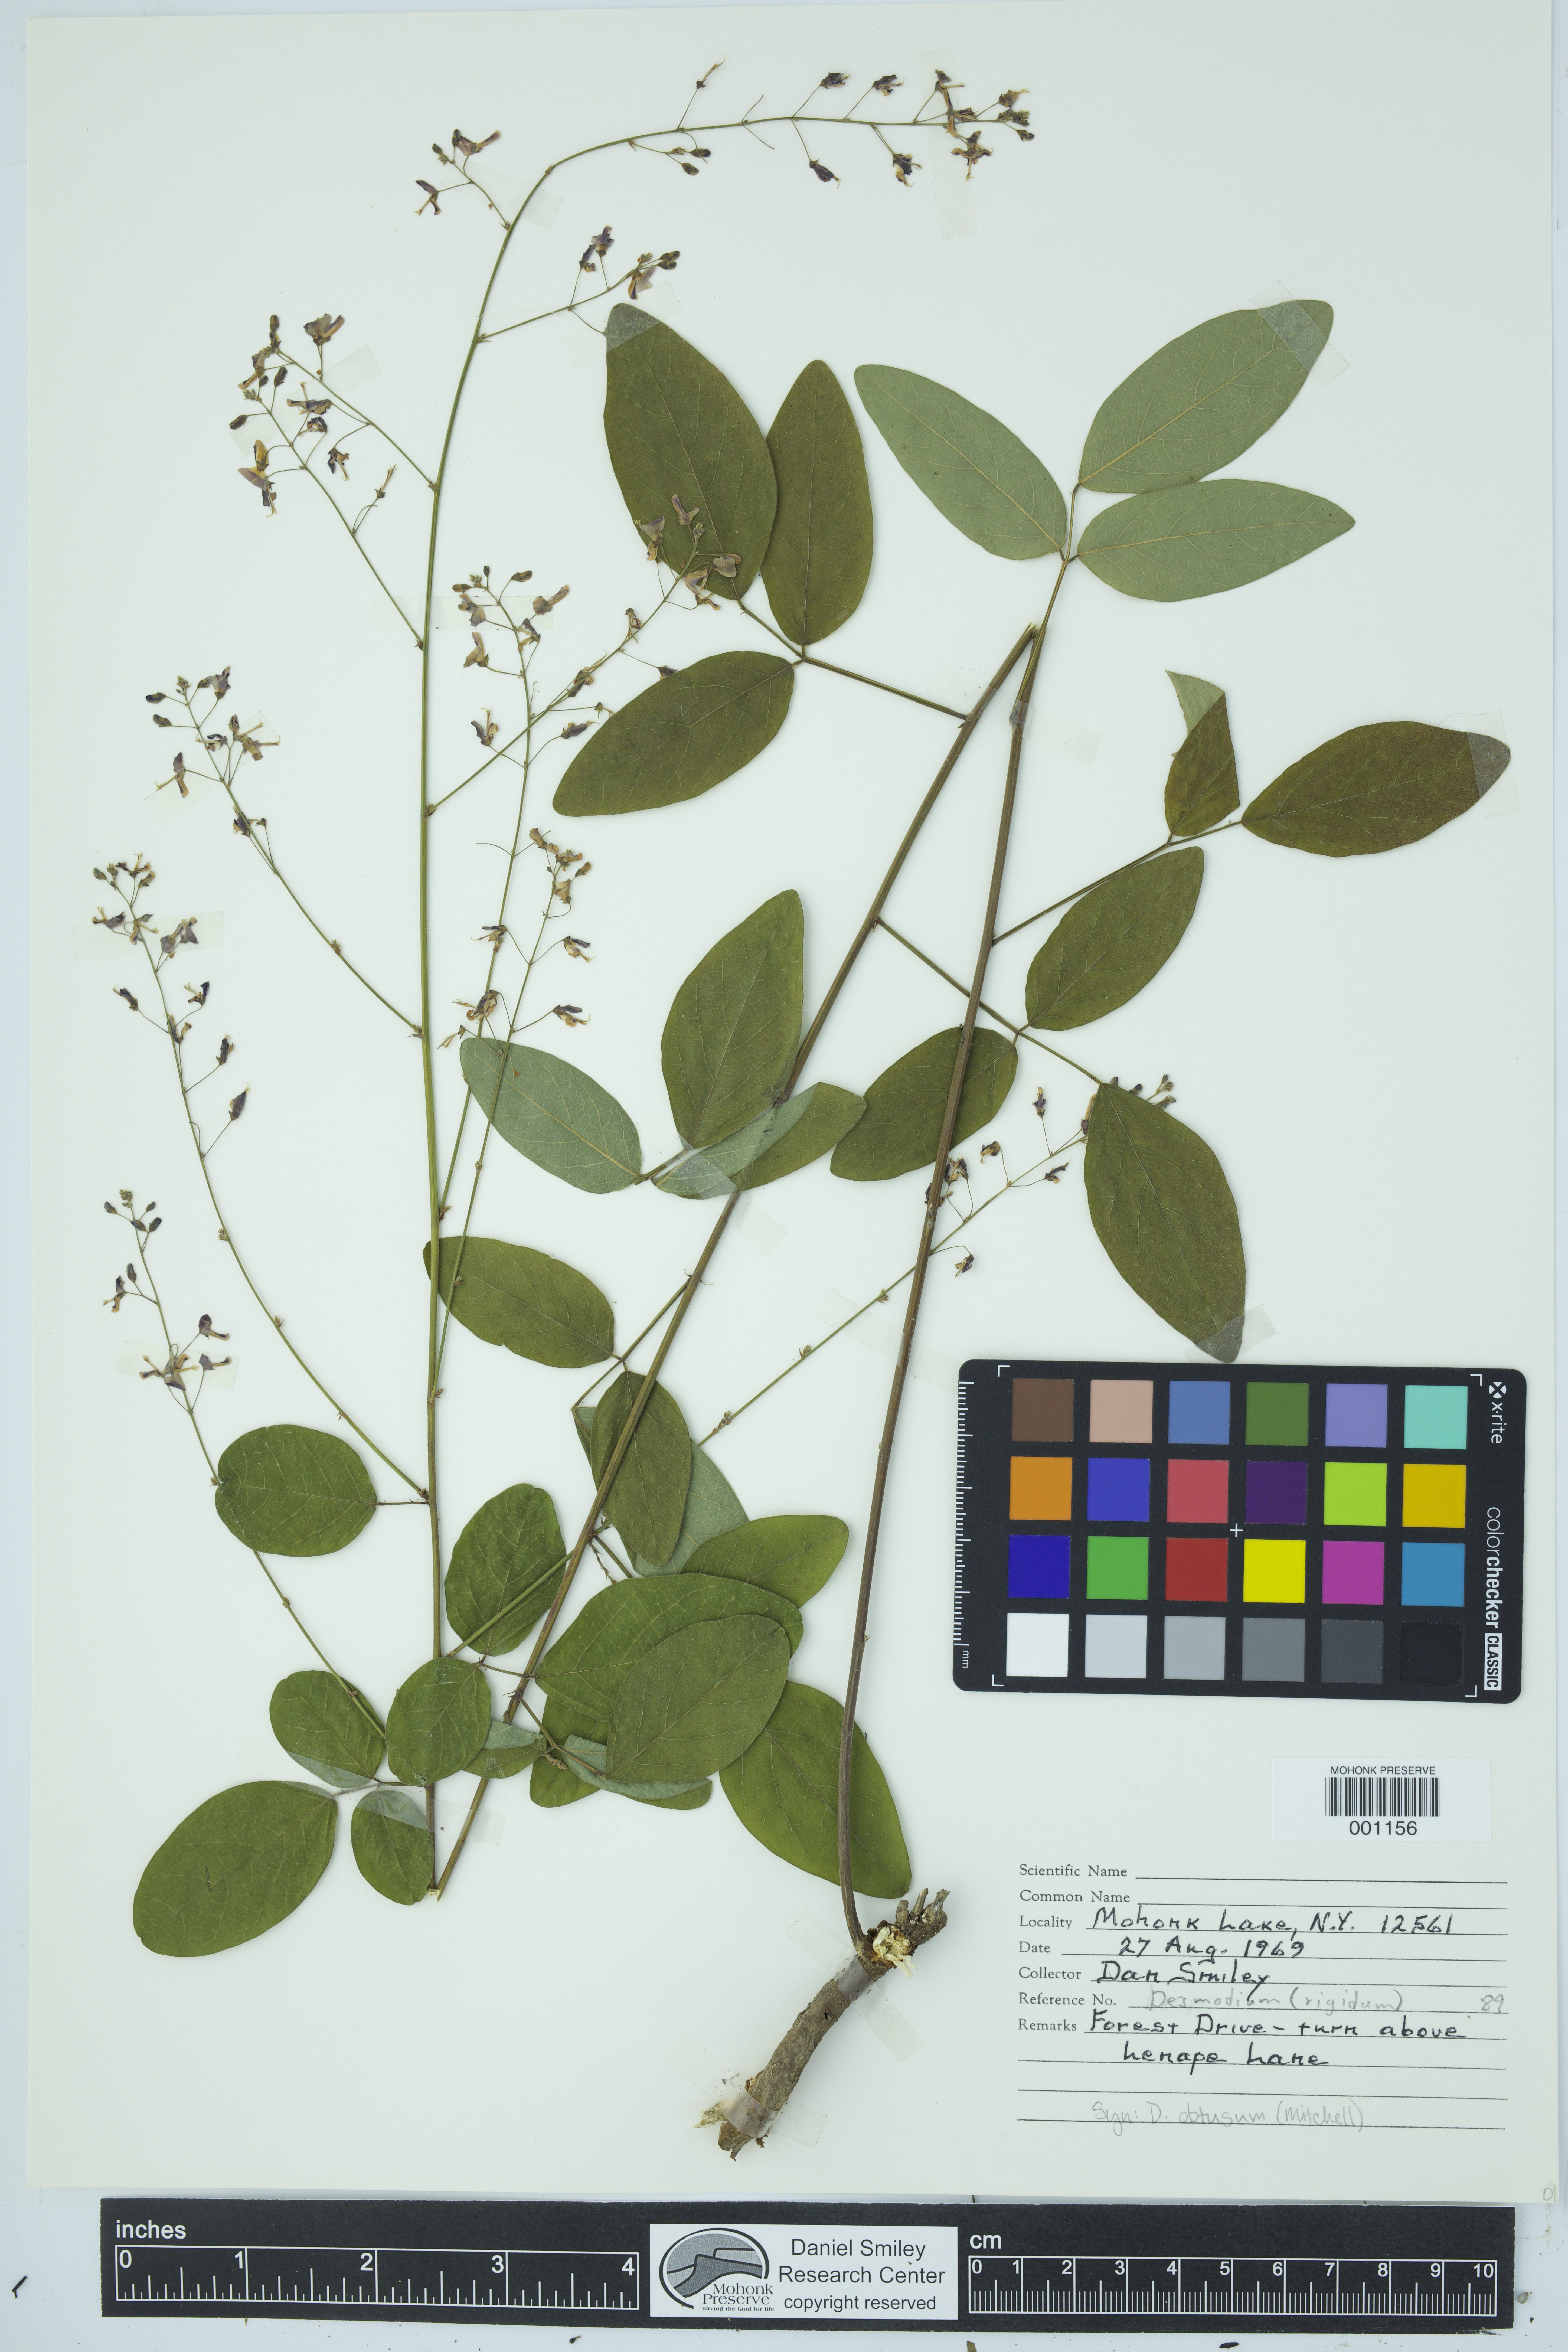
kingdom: Plantae
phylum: Tracheophyta
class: Magnoliopsida
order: Fabales
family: Fabaceae
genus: Desmodium
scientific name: Desmodium obtusum
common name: Stiff tick trefoil
